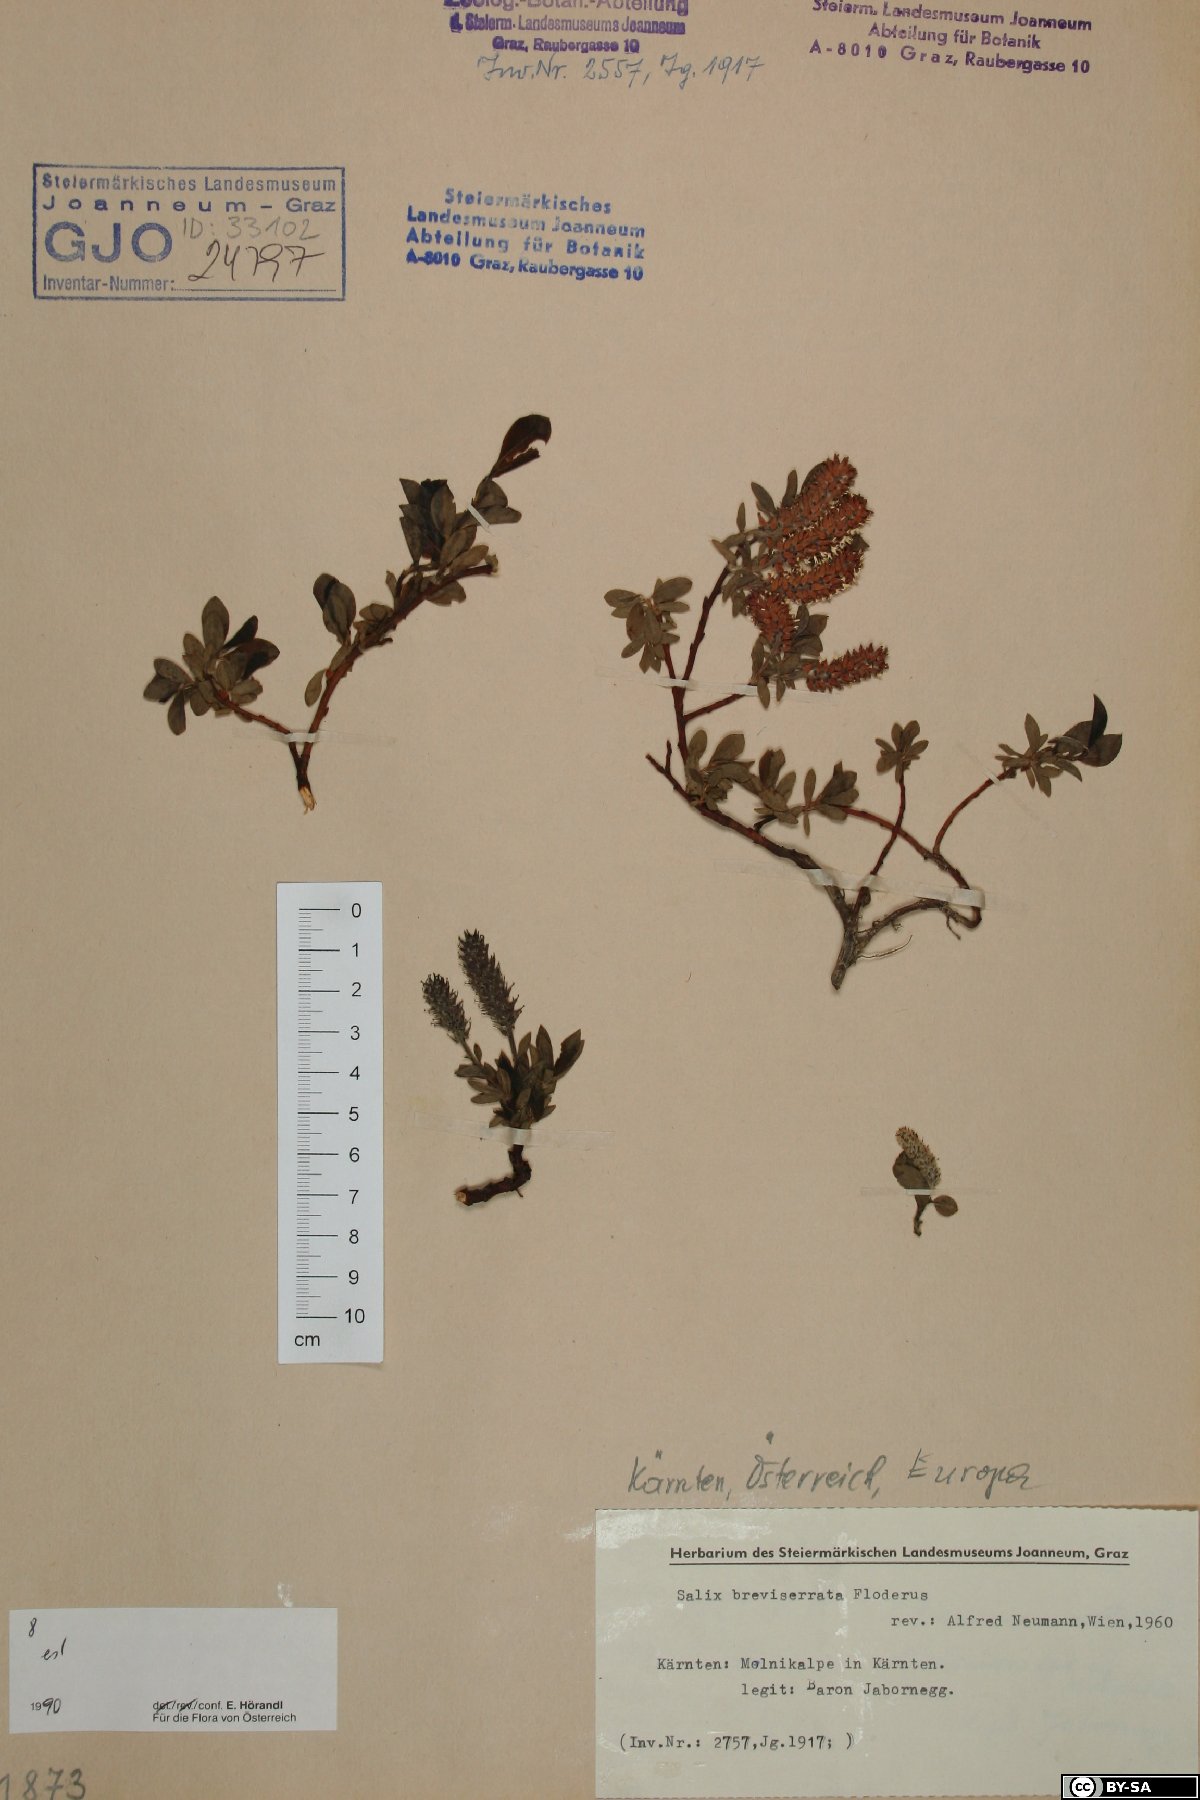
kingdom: Plantae
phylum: Tracheophyta
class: Magnoliopsida
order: Malpighiales
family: Salicaceae
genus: Salix
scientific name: Salix breviserrata
